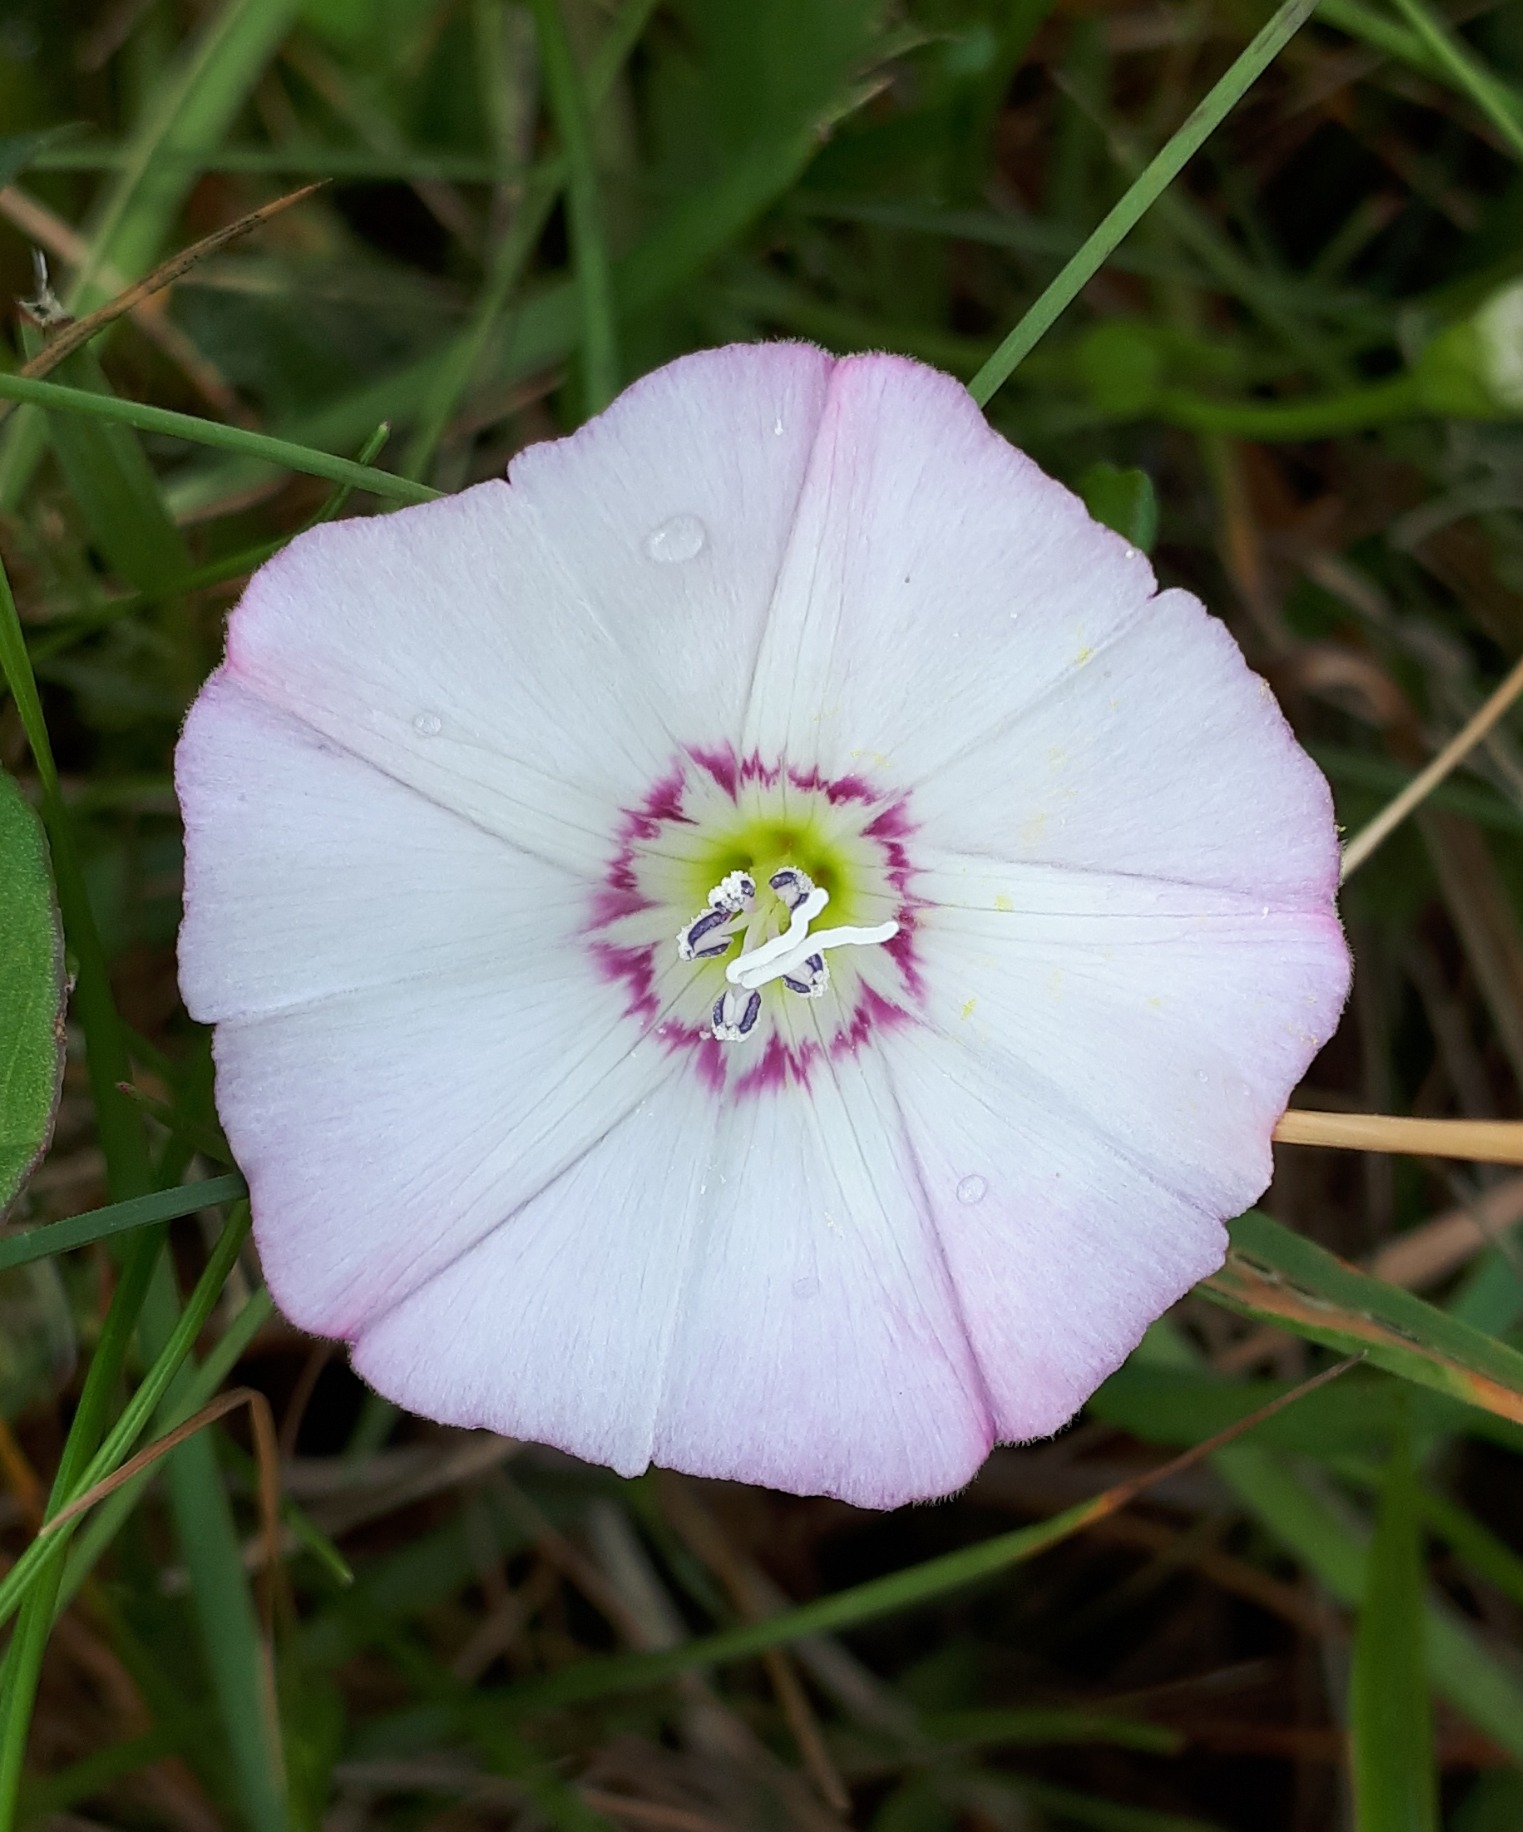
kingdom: Plantae
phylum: Tracheophyta
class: Magnoliopsida
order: Solanales
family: Convolvulaceae
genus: Convolvulus
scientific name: Convolvulus arvensis
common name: Ager-snerle
